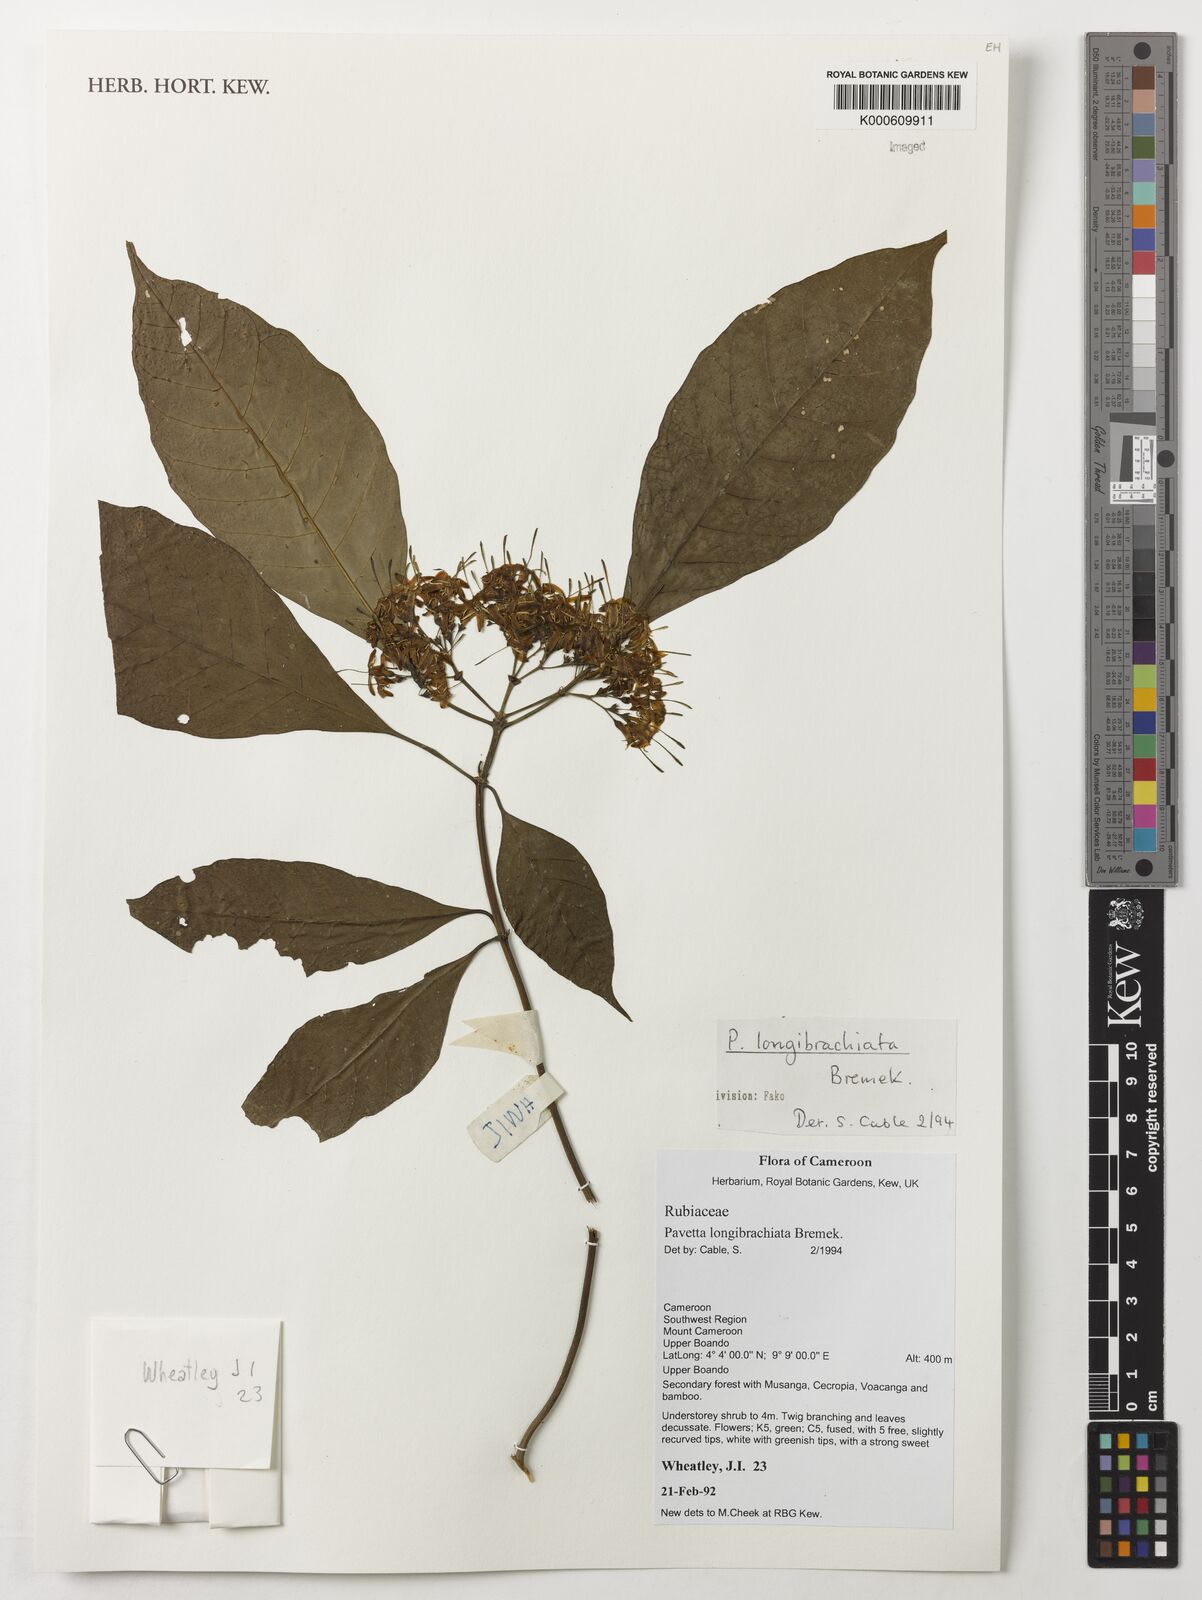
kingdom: Plantae
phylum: Tracheophyta
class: Magnoliopsida
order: Gentianales
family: Rubiaceae
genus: Pavetta
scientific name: Pavetta longibrachiata
